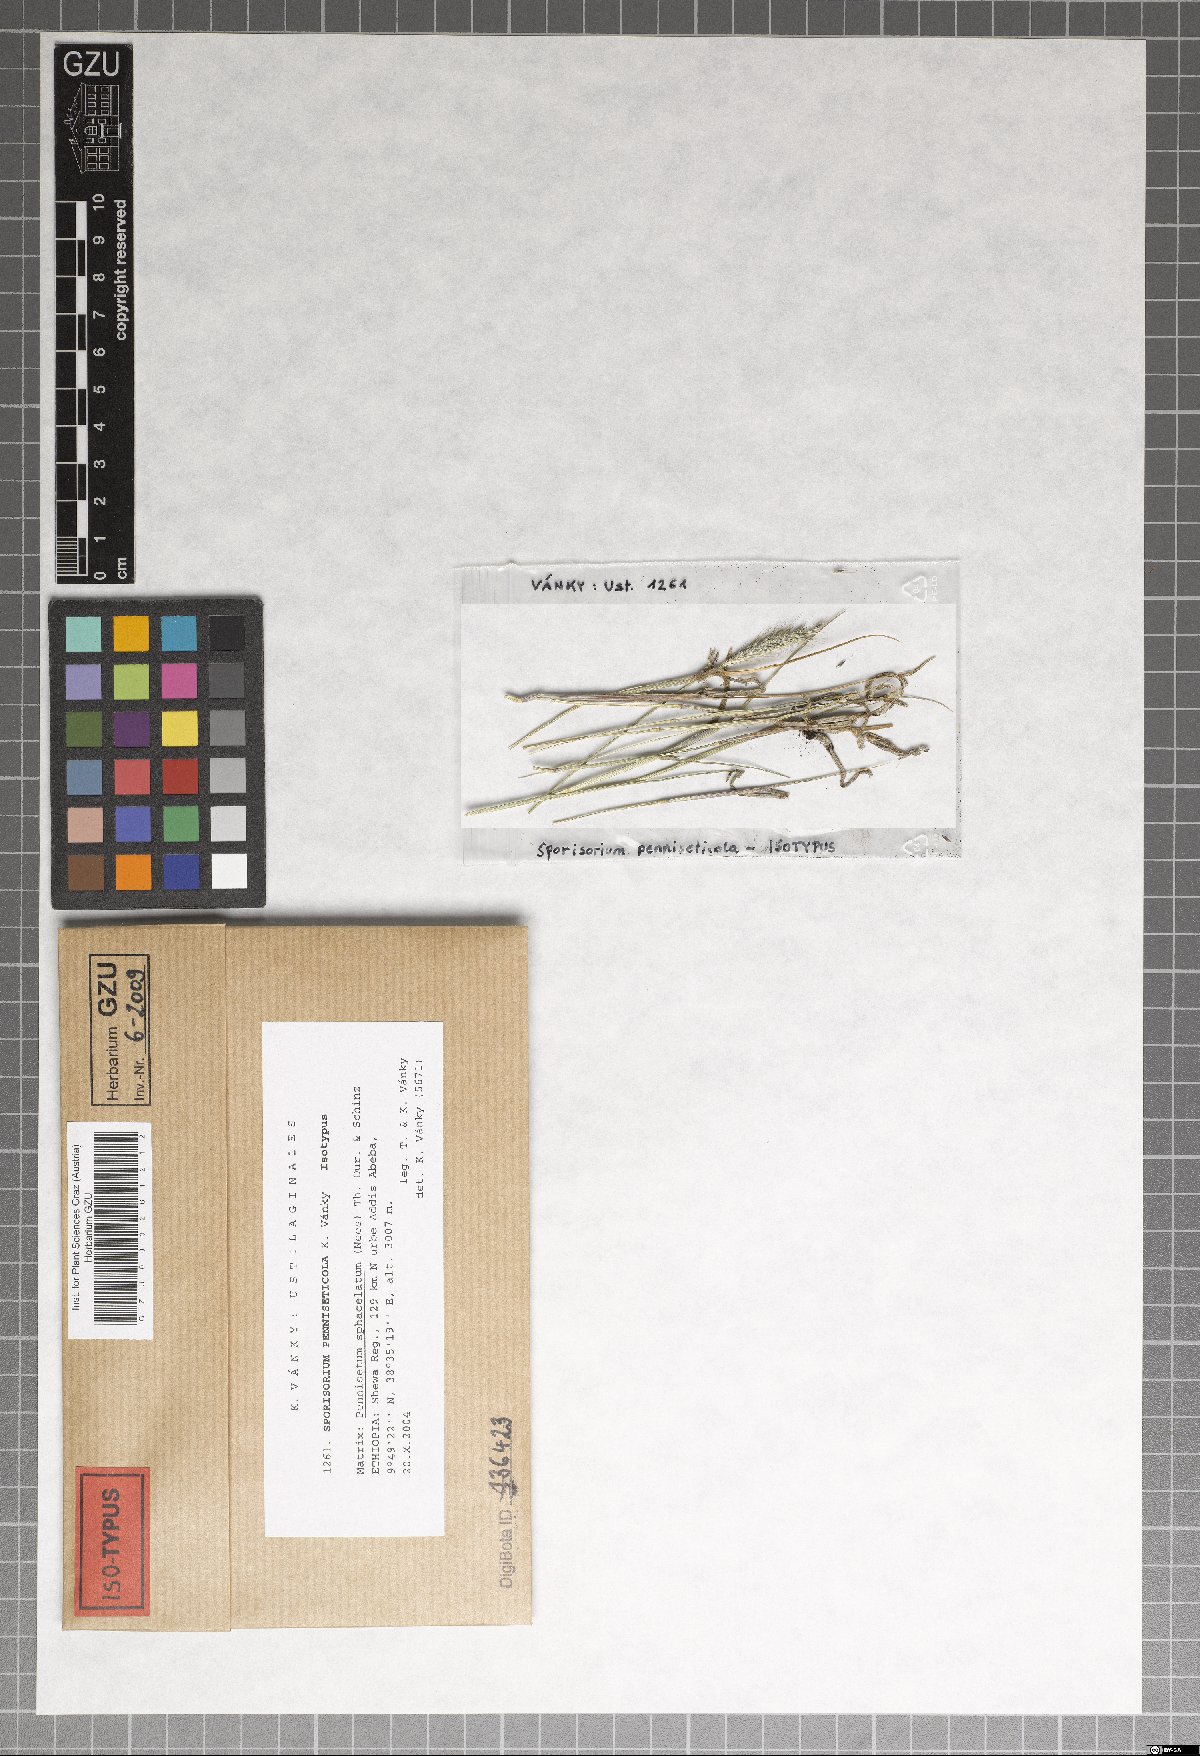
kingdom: Fungi
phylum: Basidiomycota
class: Ustilaginomycetes
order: Ustilaginales
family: Ustilaginaceae
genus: Anthracocystis
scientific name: Anthracocystis penniseticola
